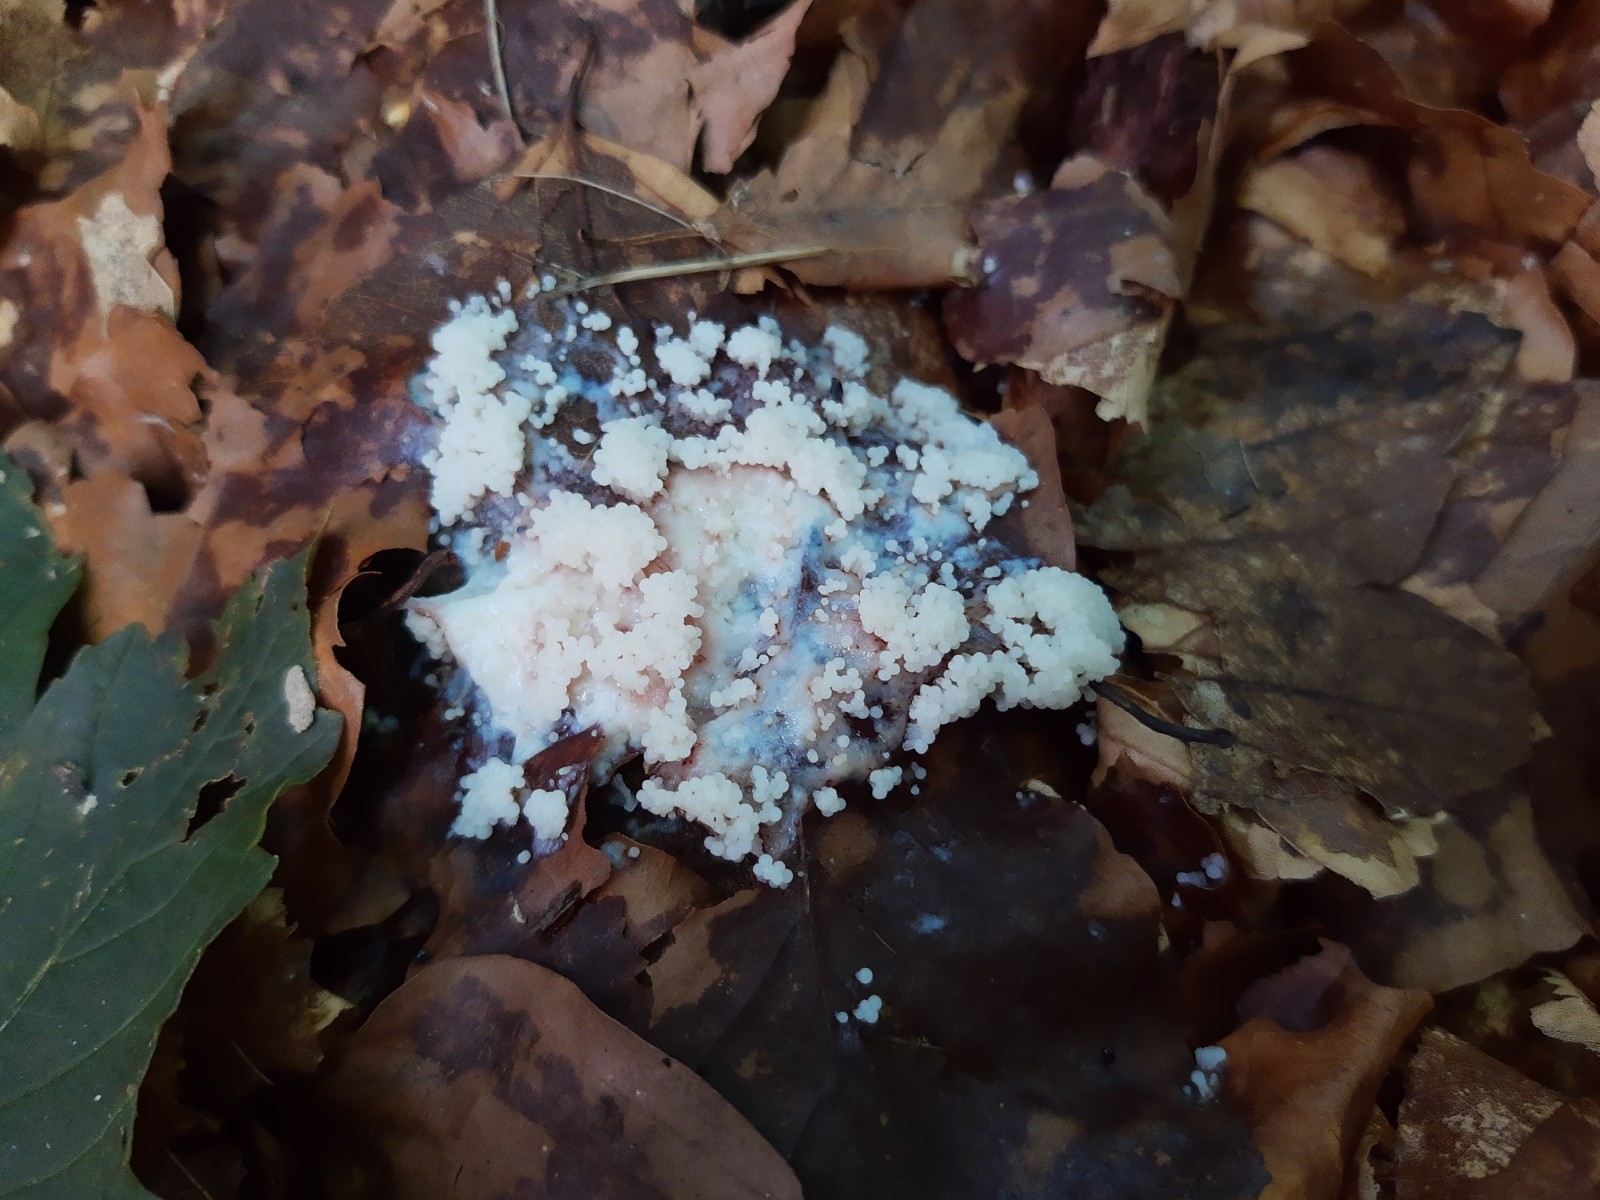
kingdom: Protozoa
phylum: Mycetozoa
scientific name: Mycetozoa
